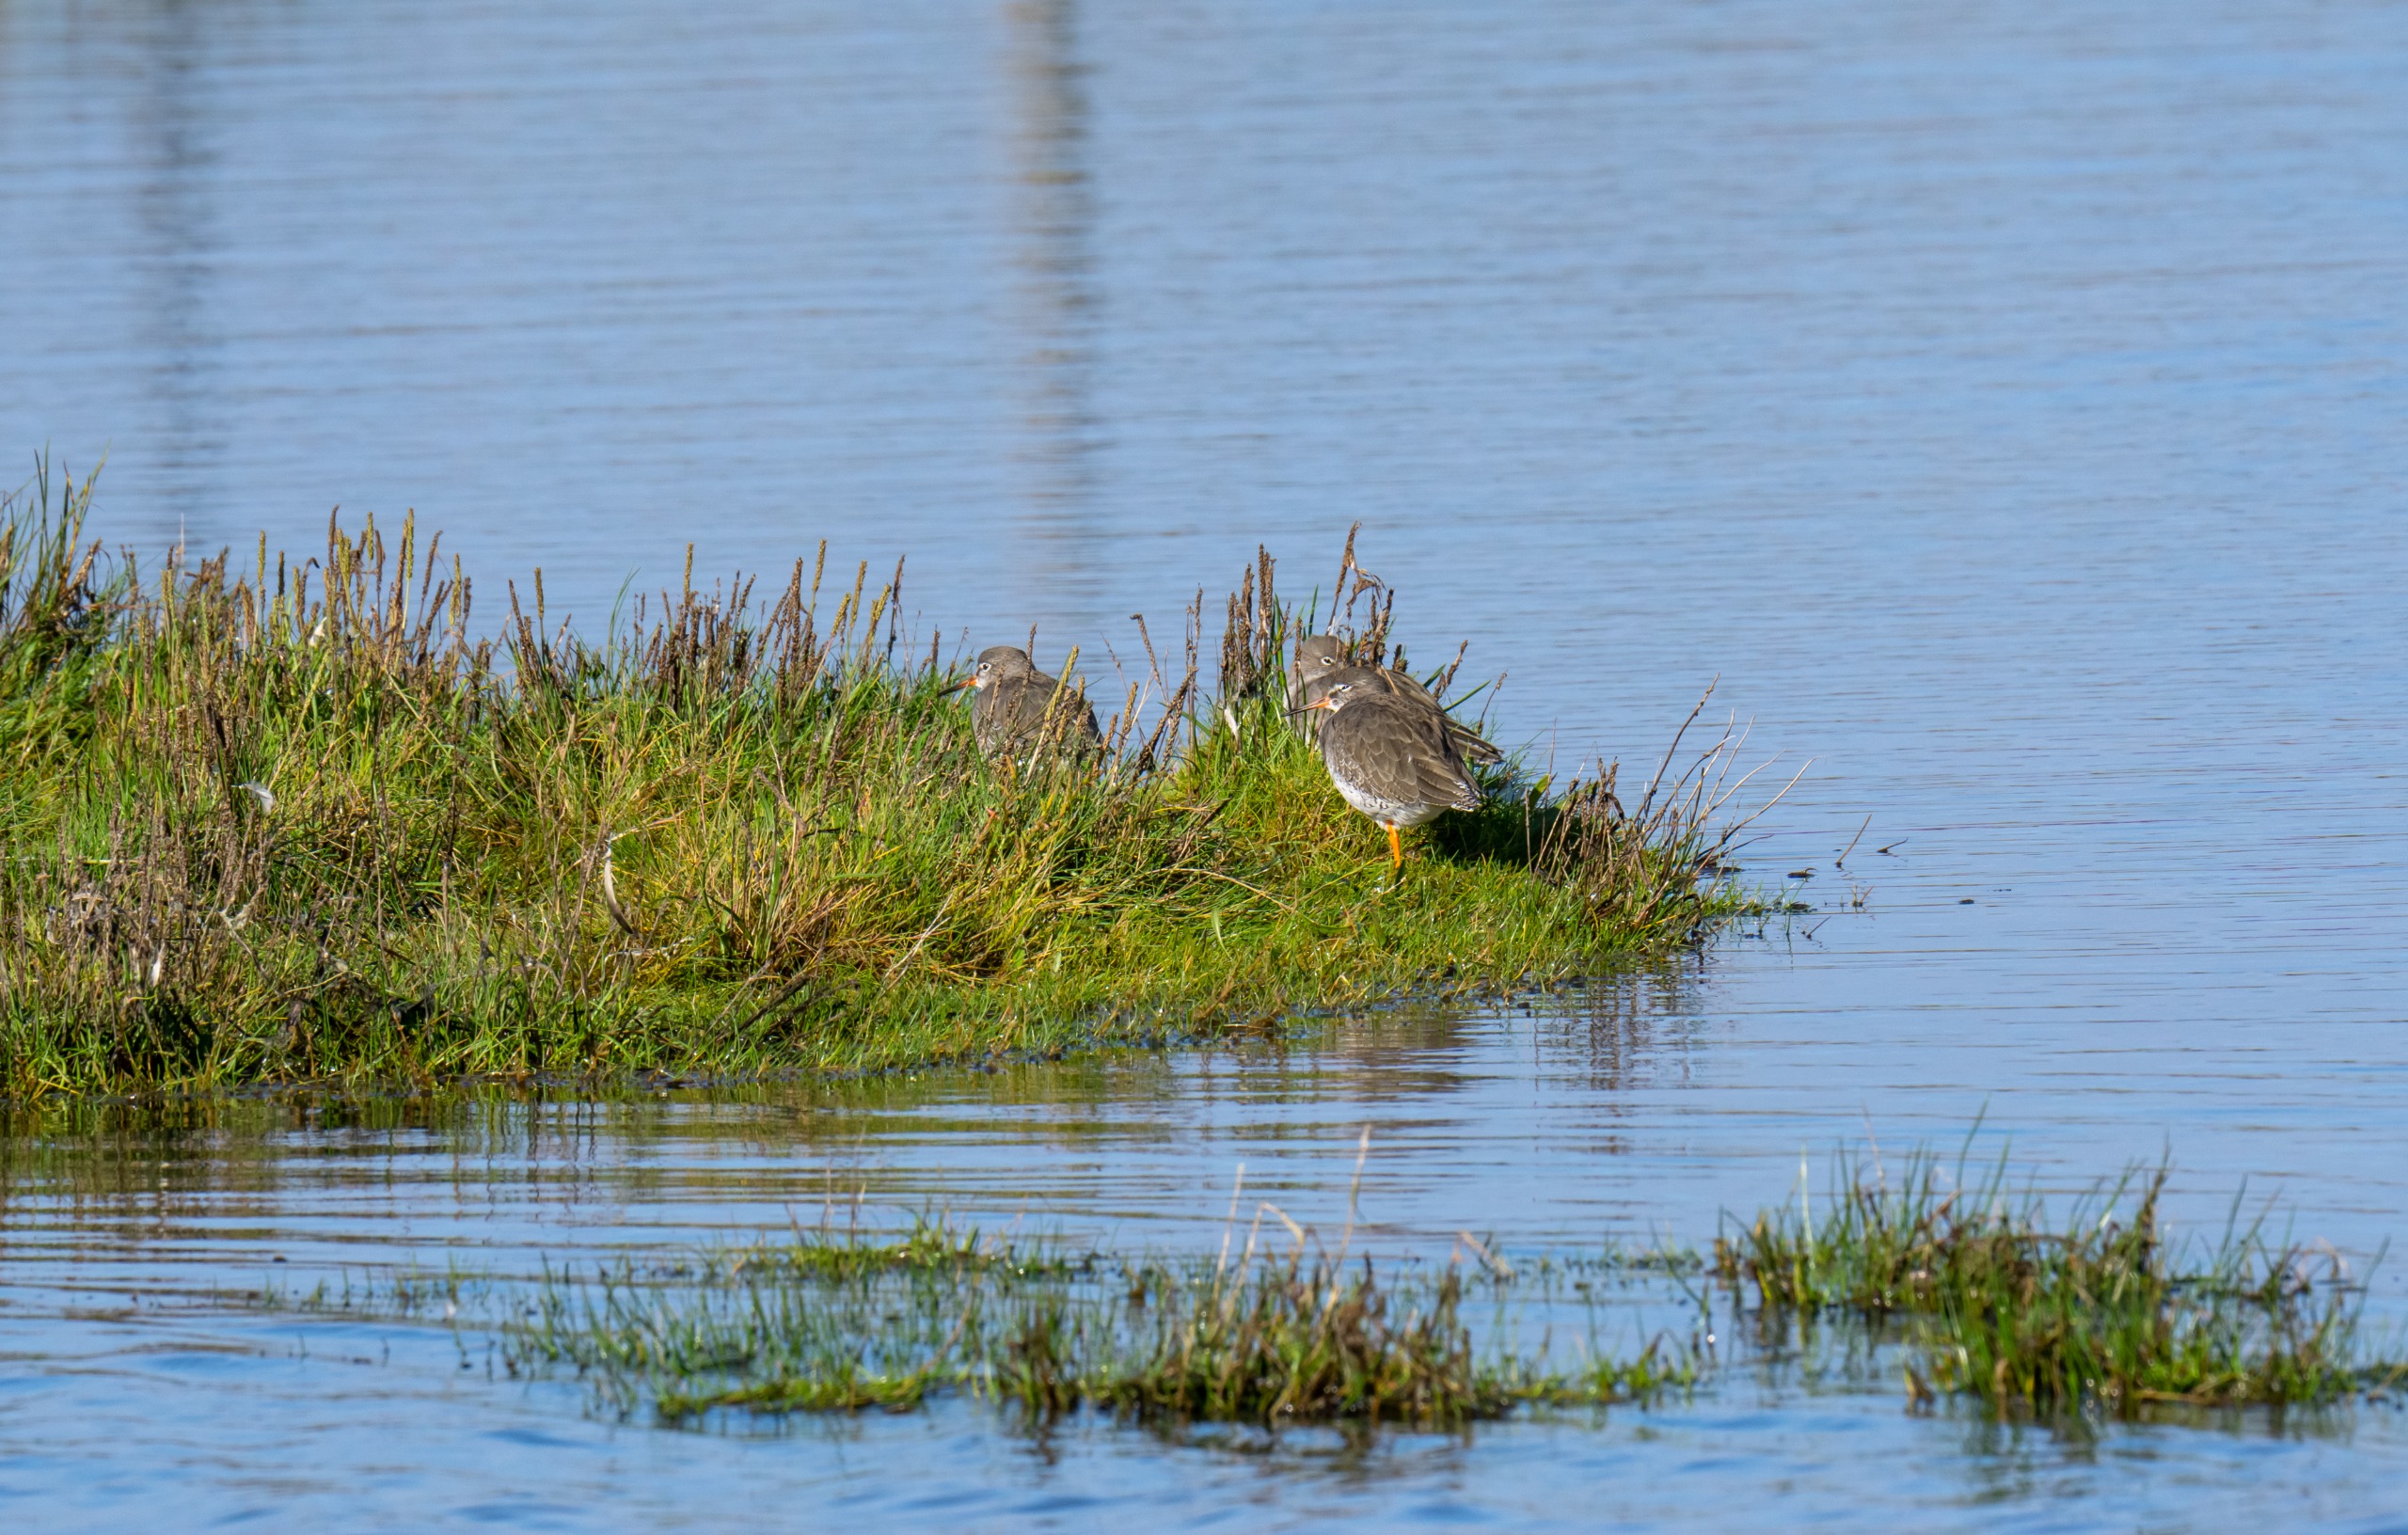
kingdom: Animalia
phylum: Chordata
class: Aves
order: Charadriiformes
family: Scolopacidae
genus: Tringa
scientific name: Tringa totanus
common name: Rødben
